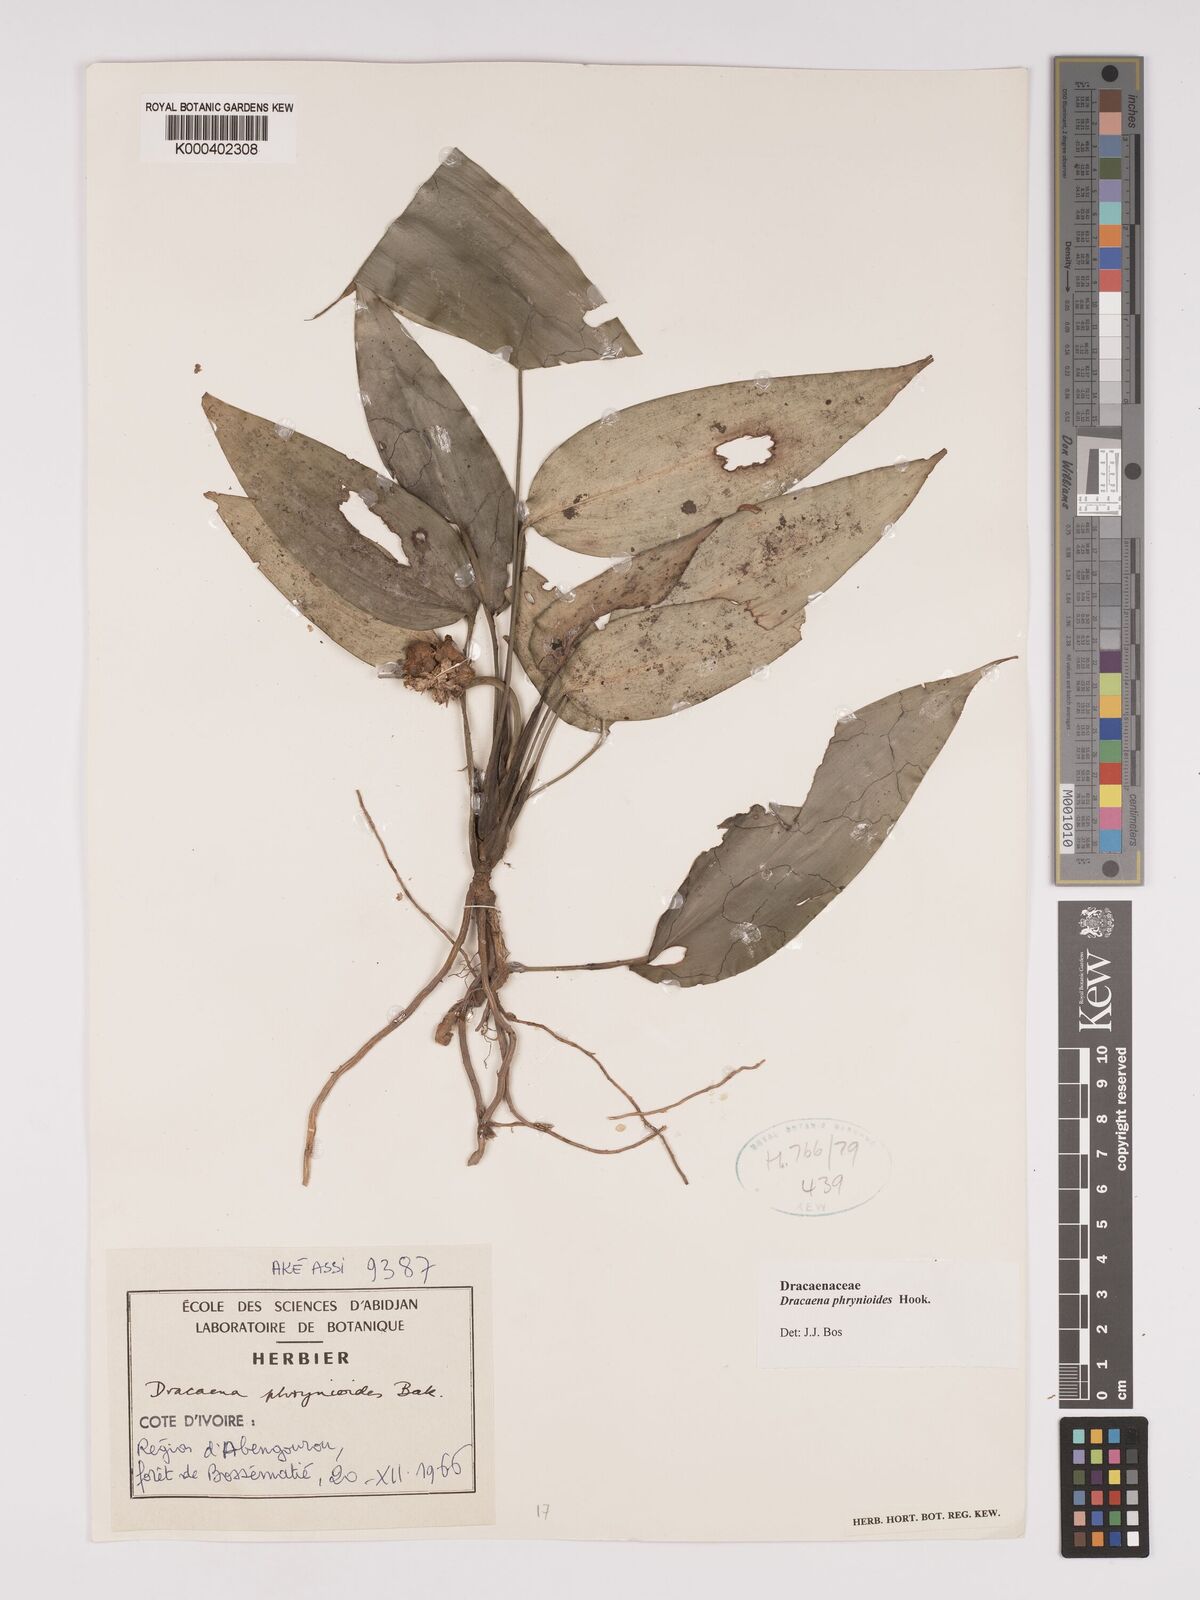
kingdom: Plantae
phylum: Tracheophyta
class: Liliopsida
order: Asparagales
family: Asparagaceae
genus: Dracaena
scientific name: Dracaena phrynioides
